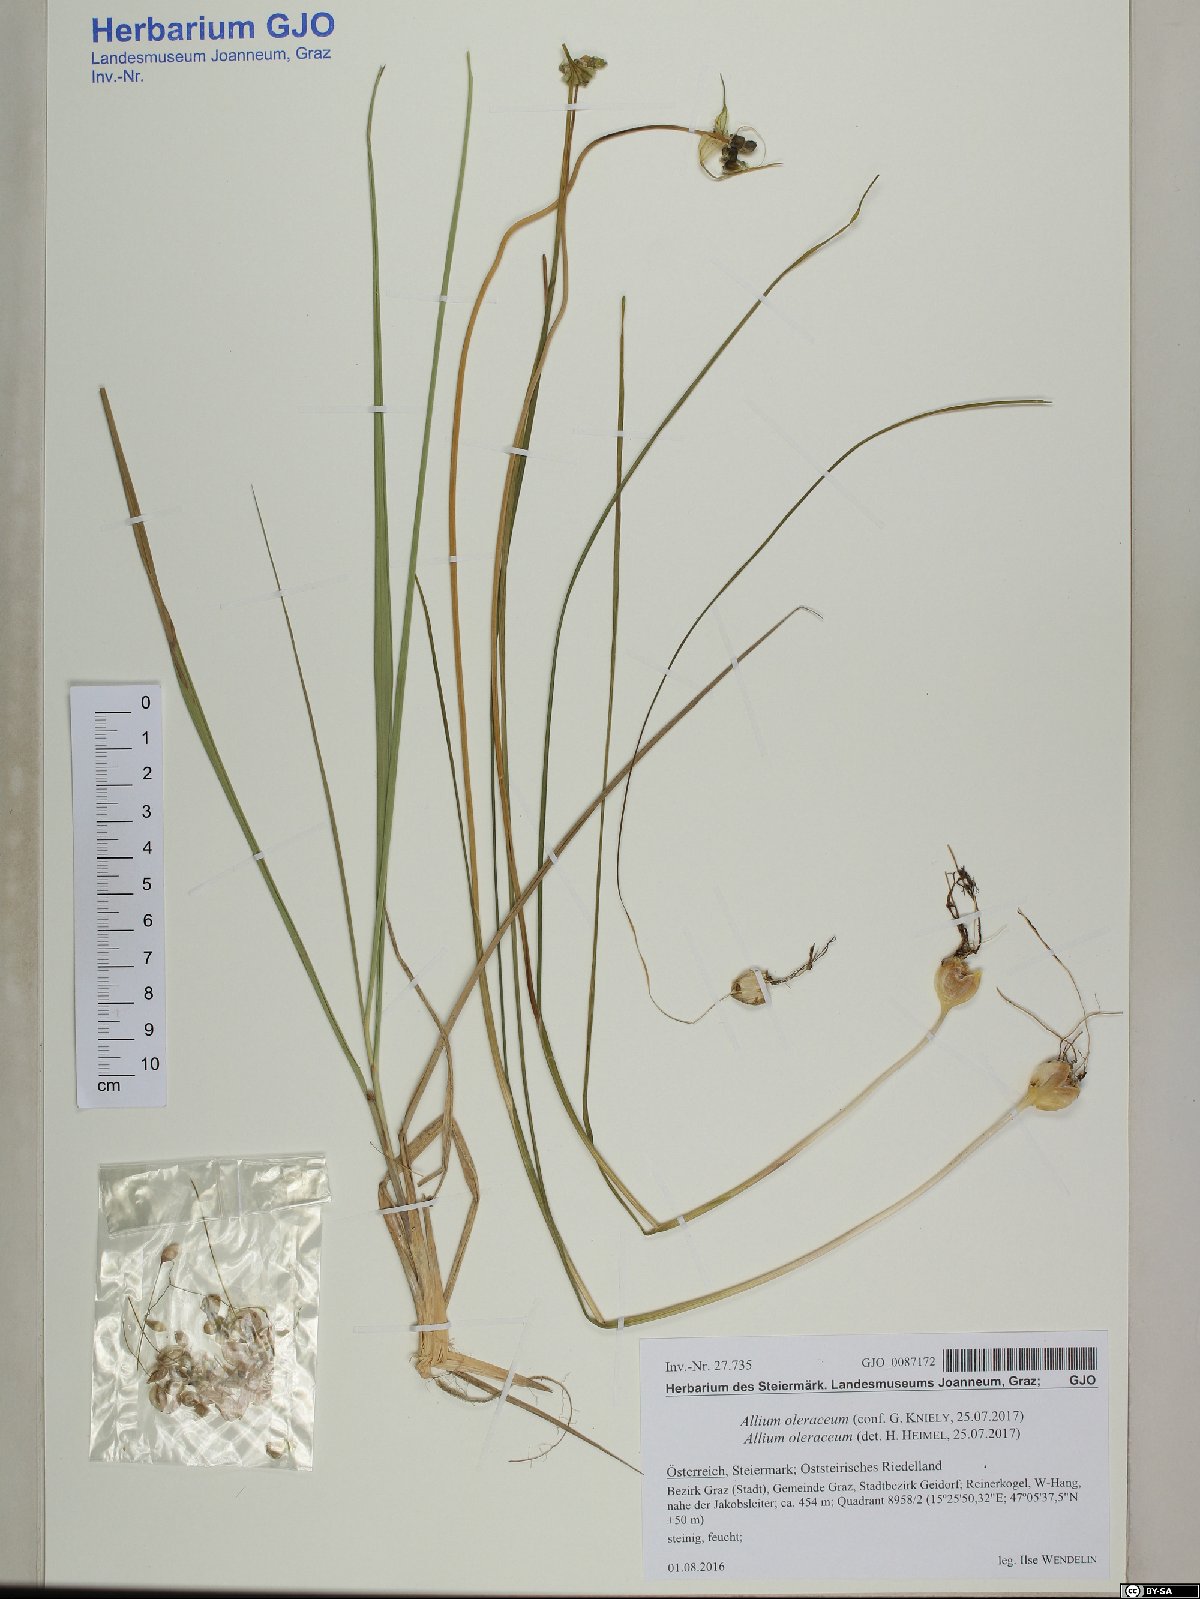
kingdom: Plantae
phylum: Tracheophyta
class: Liliopsida
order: Asparagales
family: Amaryllidaceae
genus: Allium
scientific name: Allium oleraceum
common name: Field garlic
